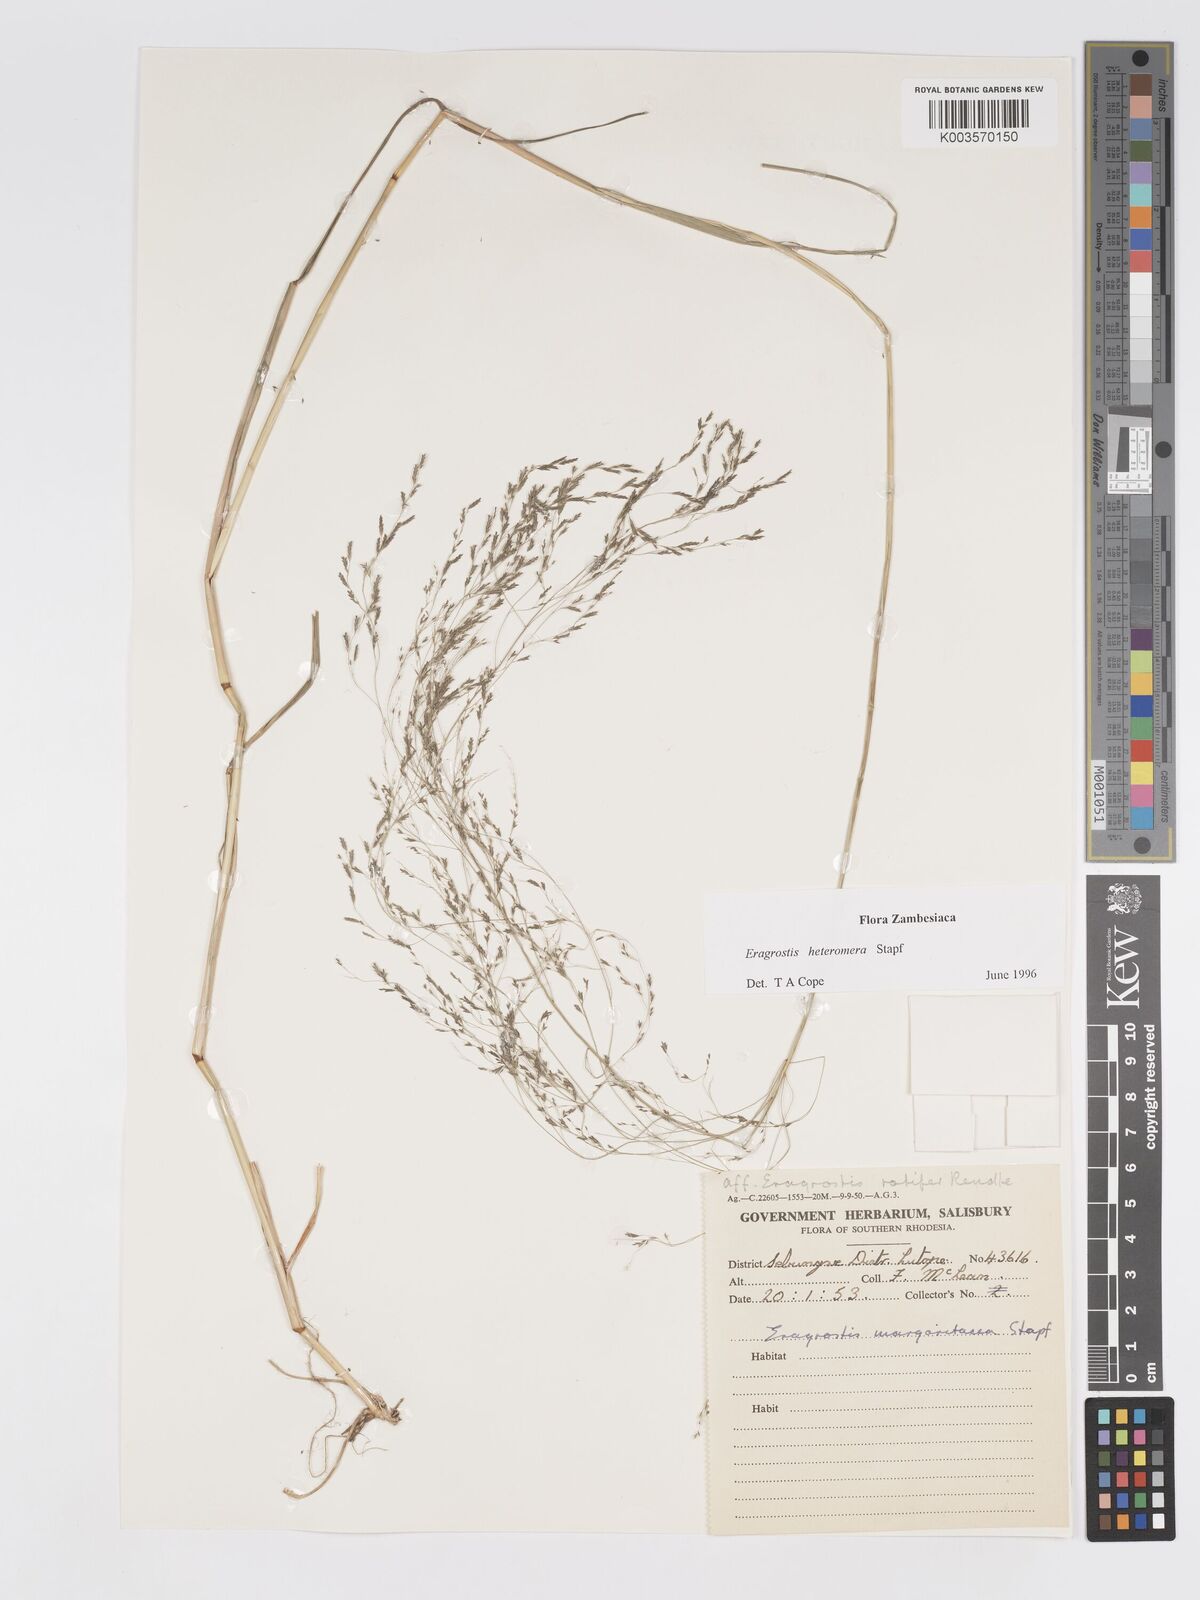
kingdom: Plantae
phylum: Tracheophyta
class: Liliopsida
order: Poales
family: Poaceae
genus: Eragrostis
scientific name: Eragrostis heteromera
